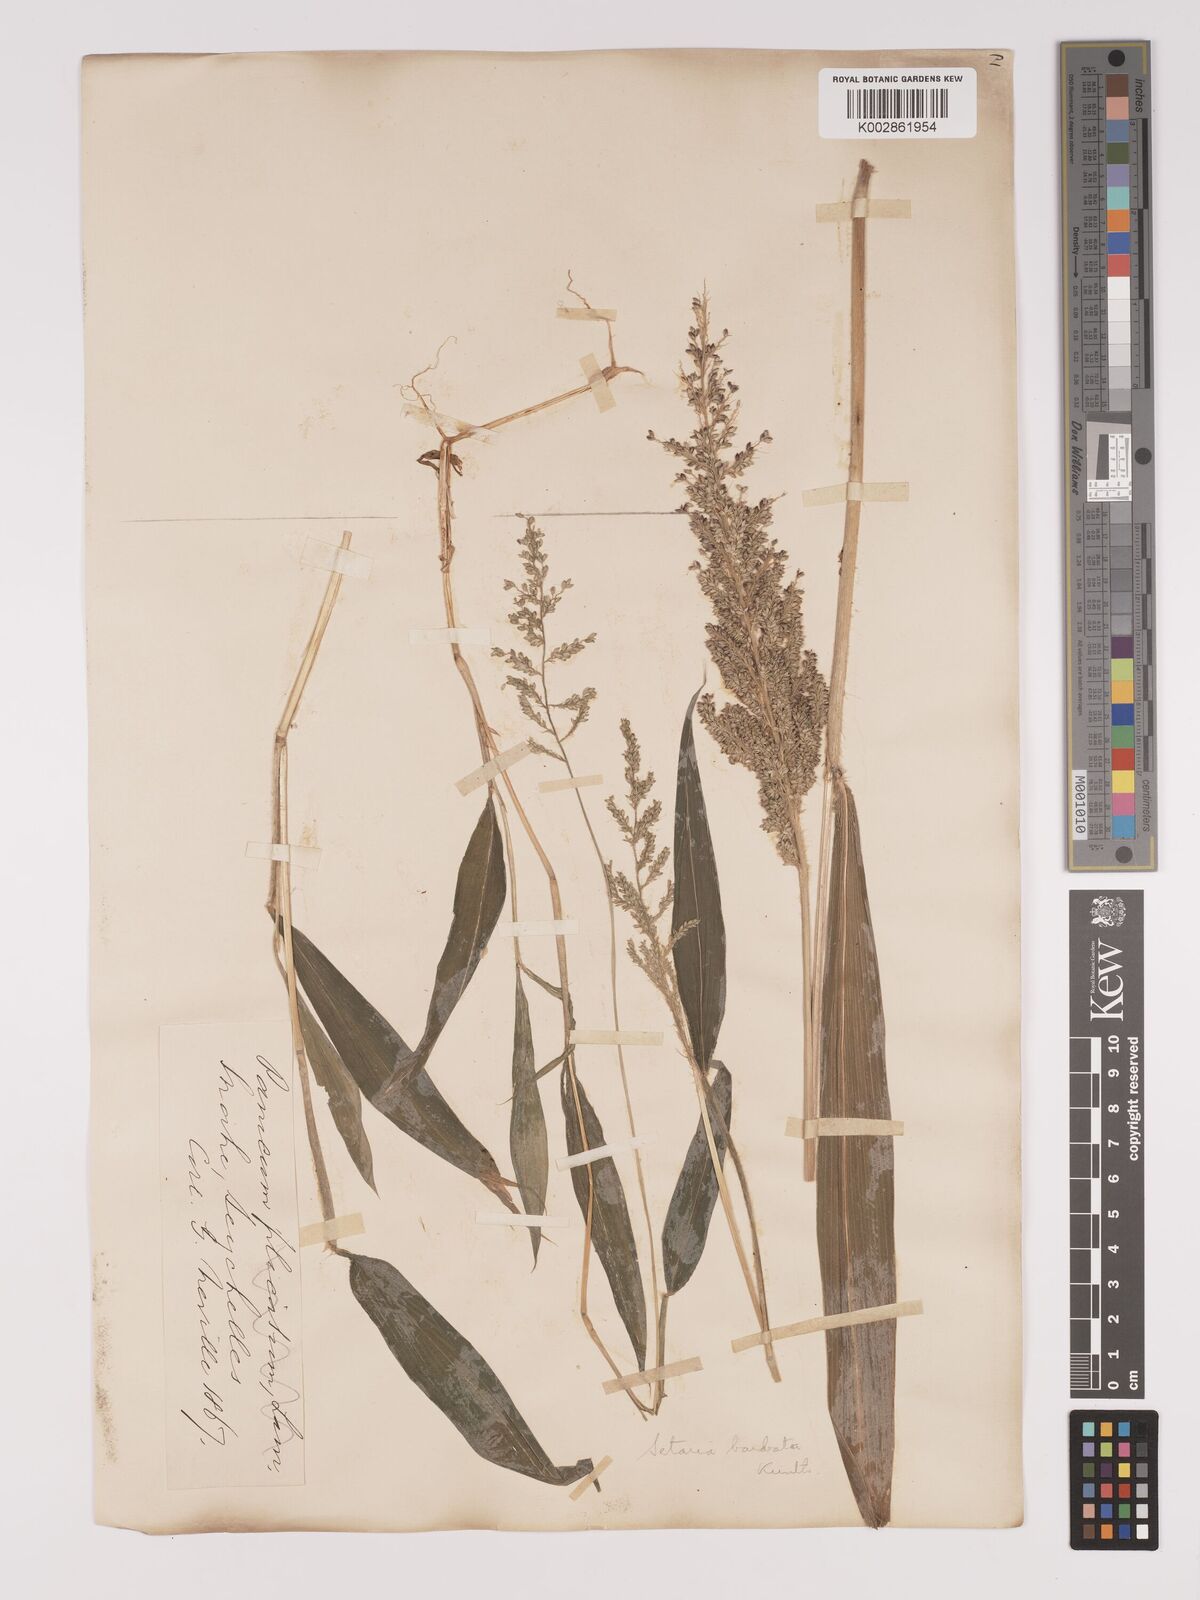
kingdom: Plantae
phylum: Tracheophyta
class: Liliopsida
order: Poales
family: Poaceae
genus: Setaria
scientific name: Setaria barbata
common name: East indian bristlegrass
